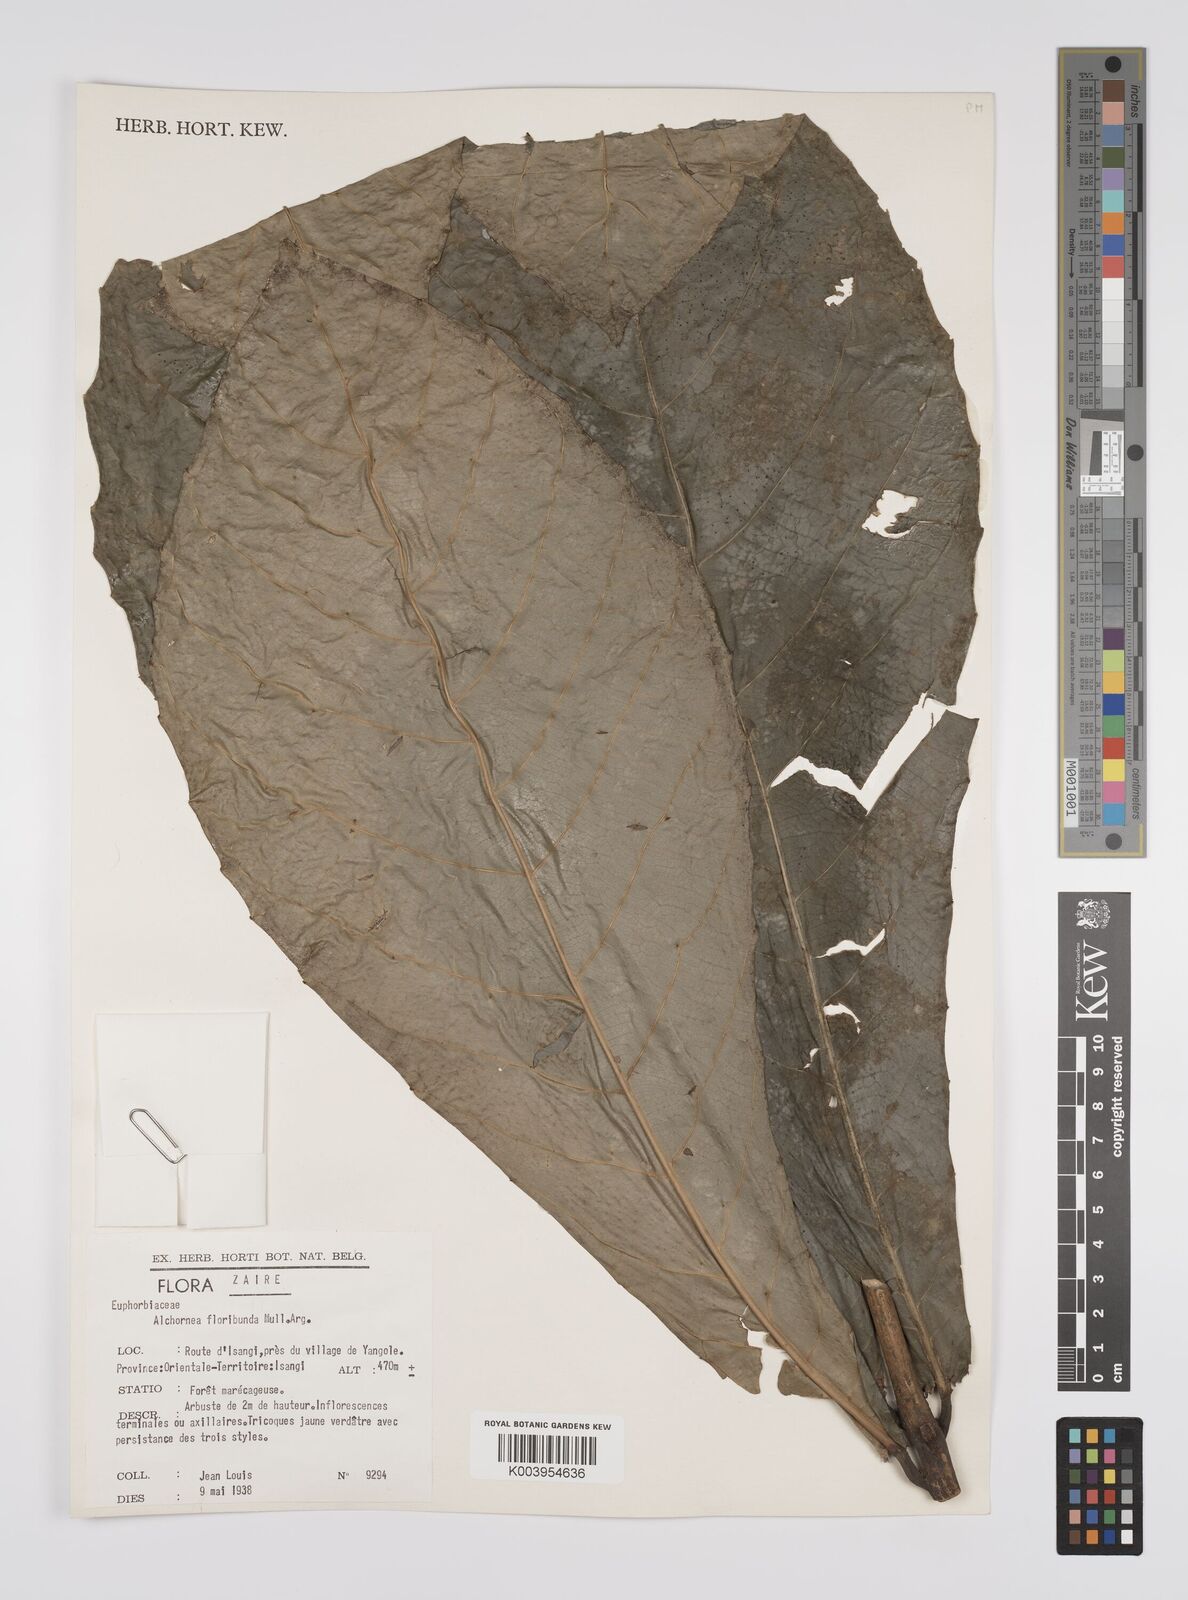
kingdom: Plantae
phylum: Tracheophyta
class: Magnoliopsida
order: Malpighiales
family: Euphorbiaceae
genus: Alchornea
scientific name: Alchornea floribunda
